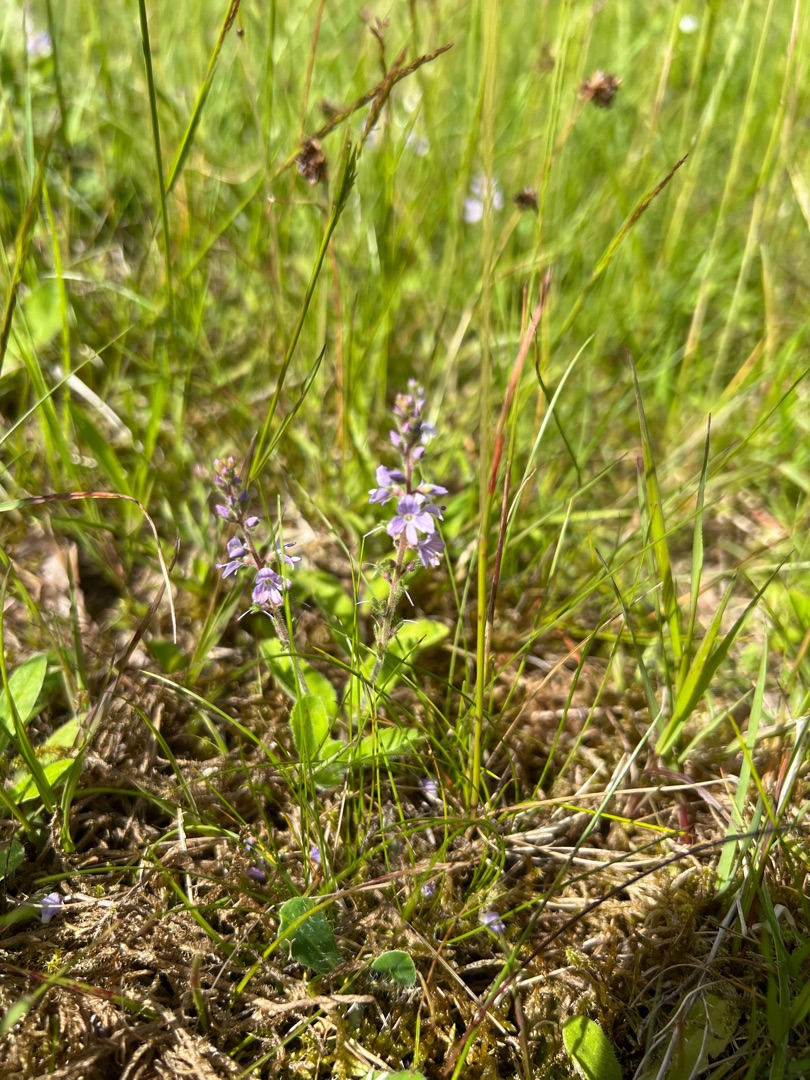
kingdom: Plantae
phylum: Tracheophyta
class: Magnoliopsida
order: Lamiales
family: Plantaginaceae
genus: Veronica
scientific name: Veronica officinalis
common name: Læge-ærenpris
